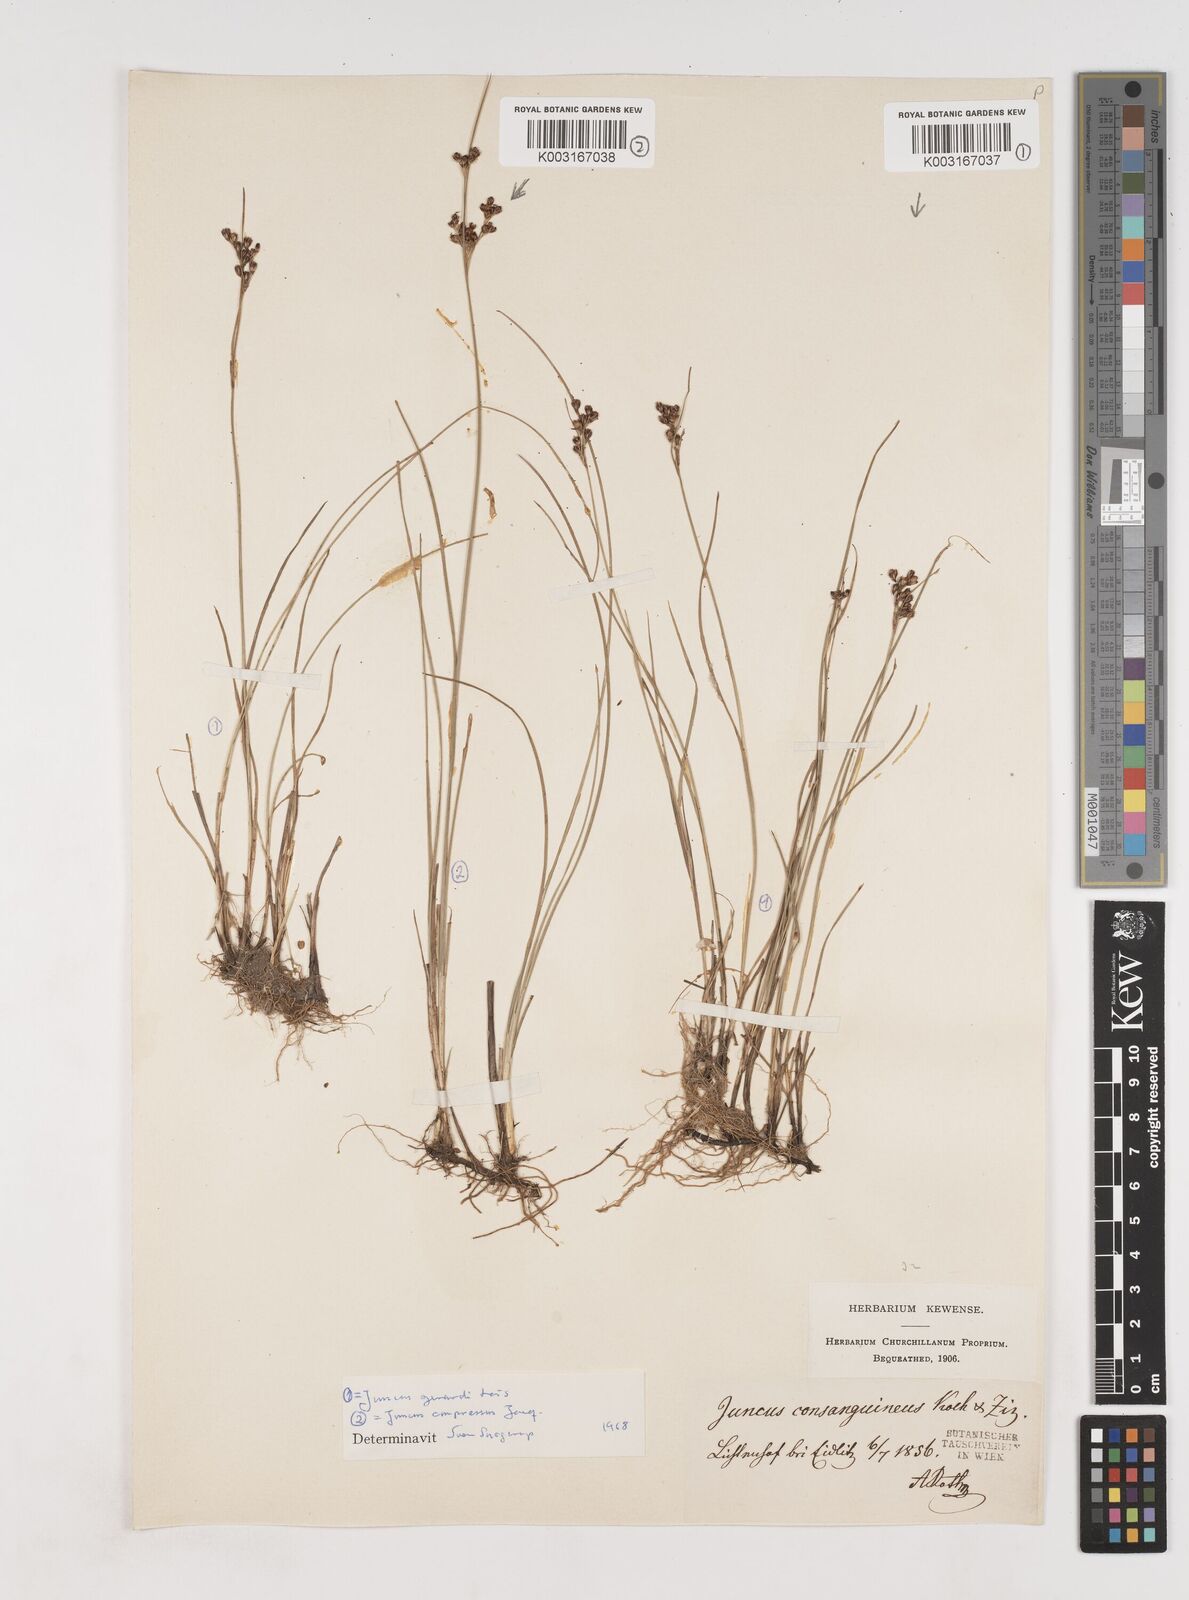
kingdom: Plantae
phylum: Tracheophyta
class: Liliopsida
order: Poales
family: Juncaceae
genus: Juncus
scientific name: Juncus gerardi
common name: Saltmarsh rush
